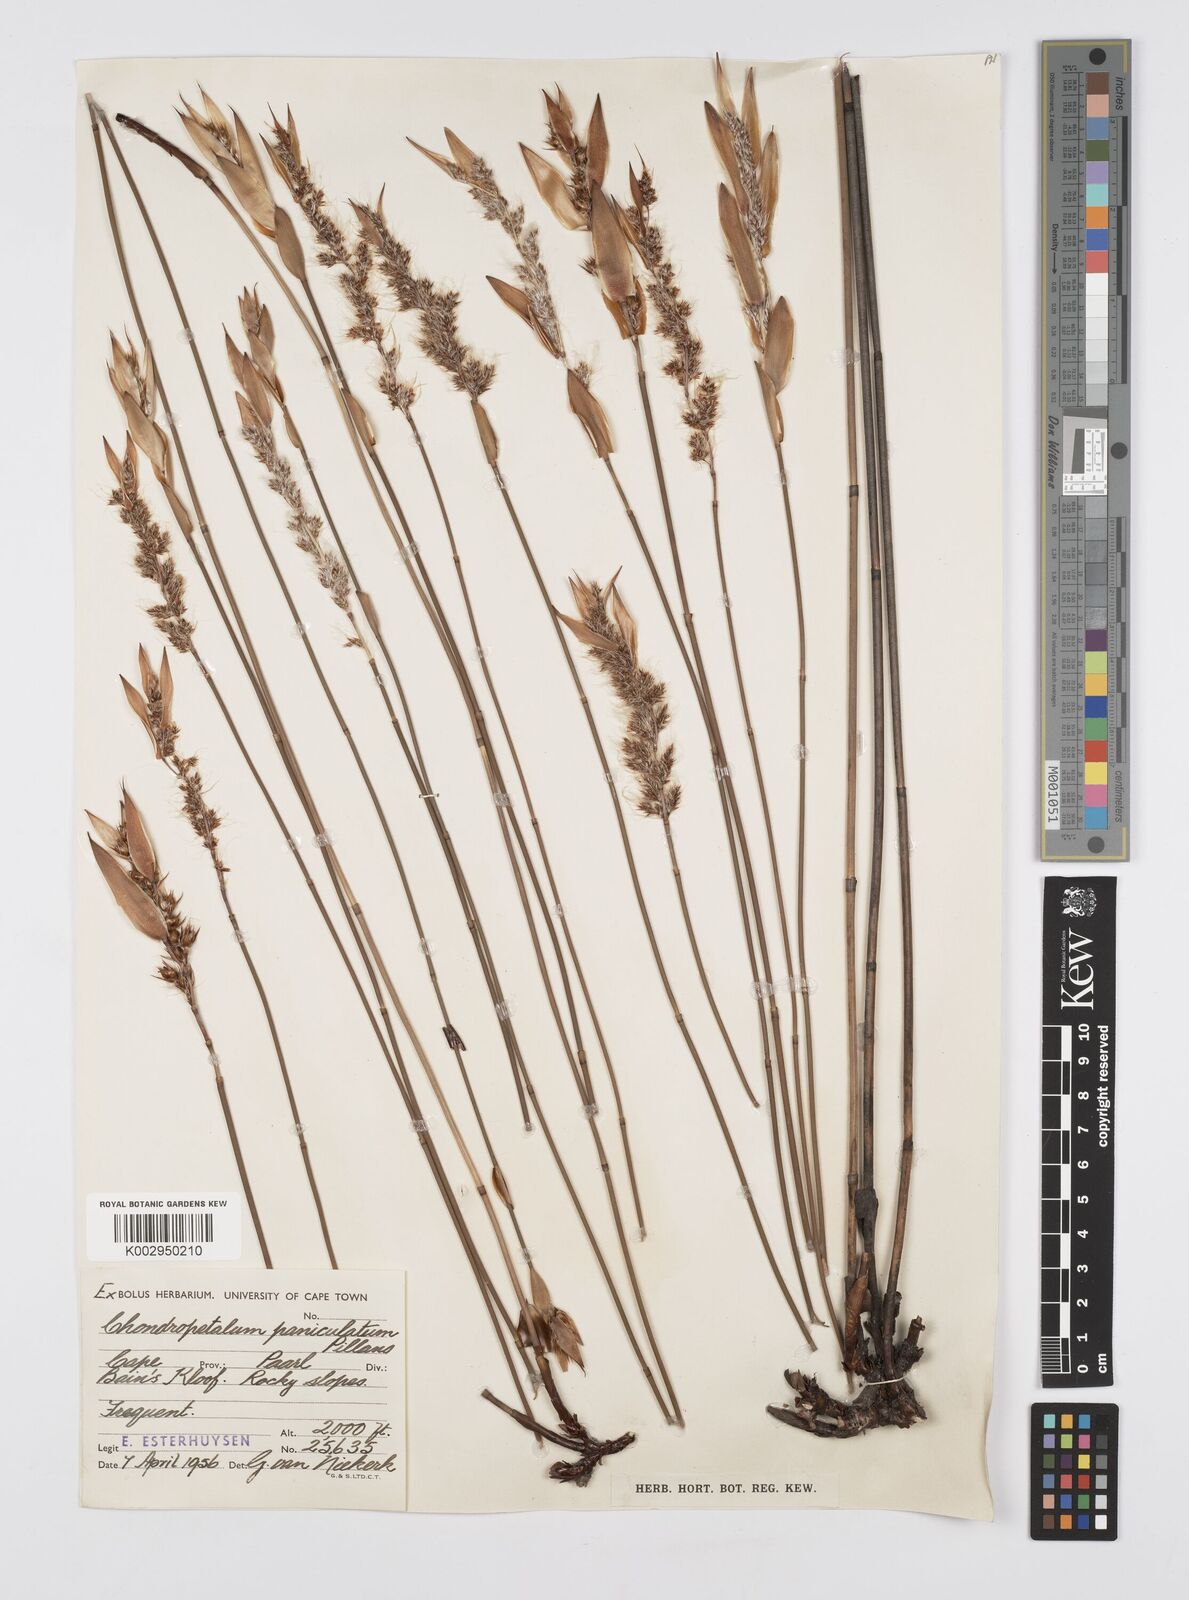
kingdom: Plantae
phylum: Tracheophyta
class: Liliopsida
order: Poales
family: Restionaceae
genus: Askidiosperma
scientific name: Askidiosperma paniculatum
